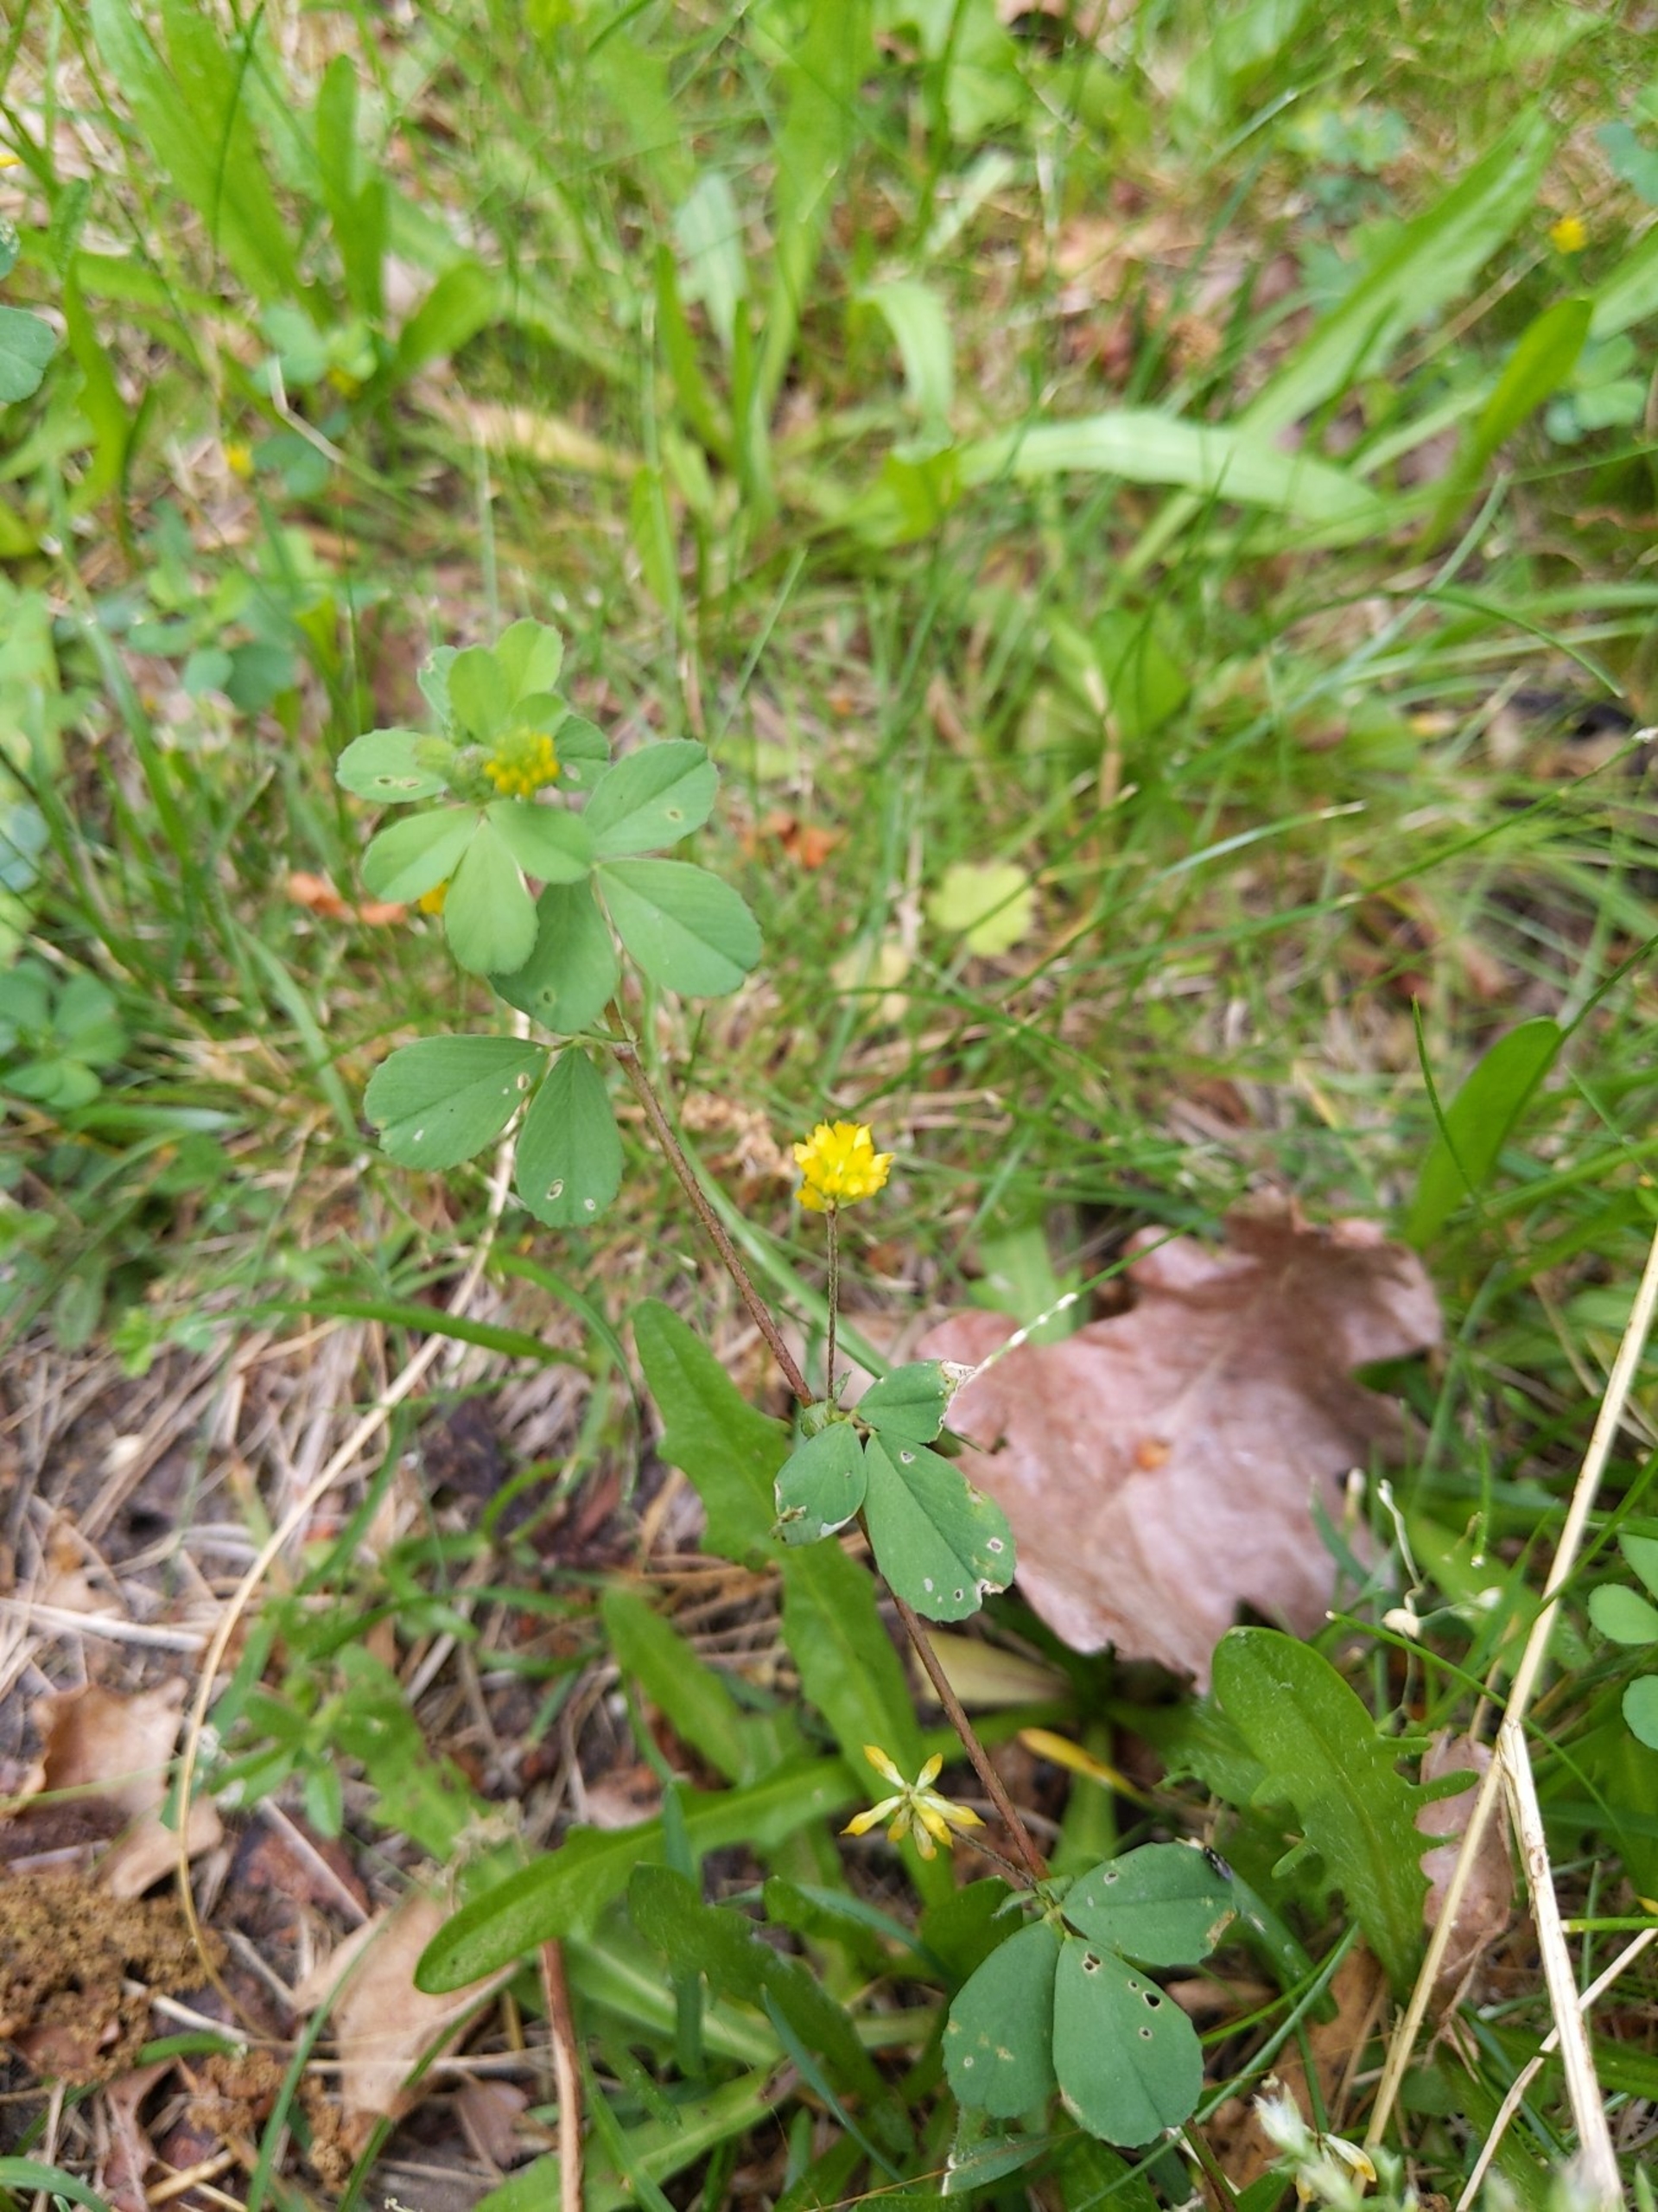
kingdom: Plantae
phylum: Tracheophyta
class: Magnoliopsida
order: Fabales
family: Fabaceae
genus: Trifolium
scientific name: Trifolium dubium
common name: Fin kløver
